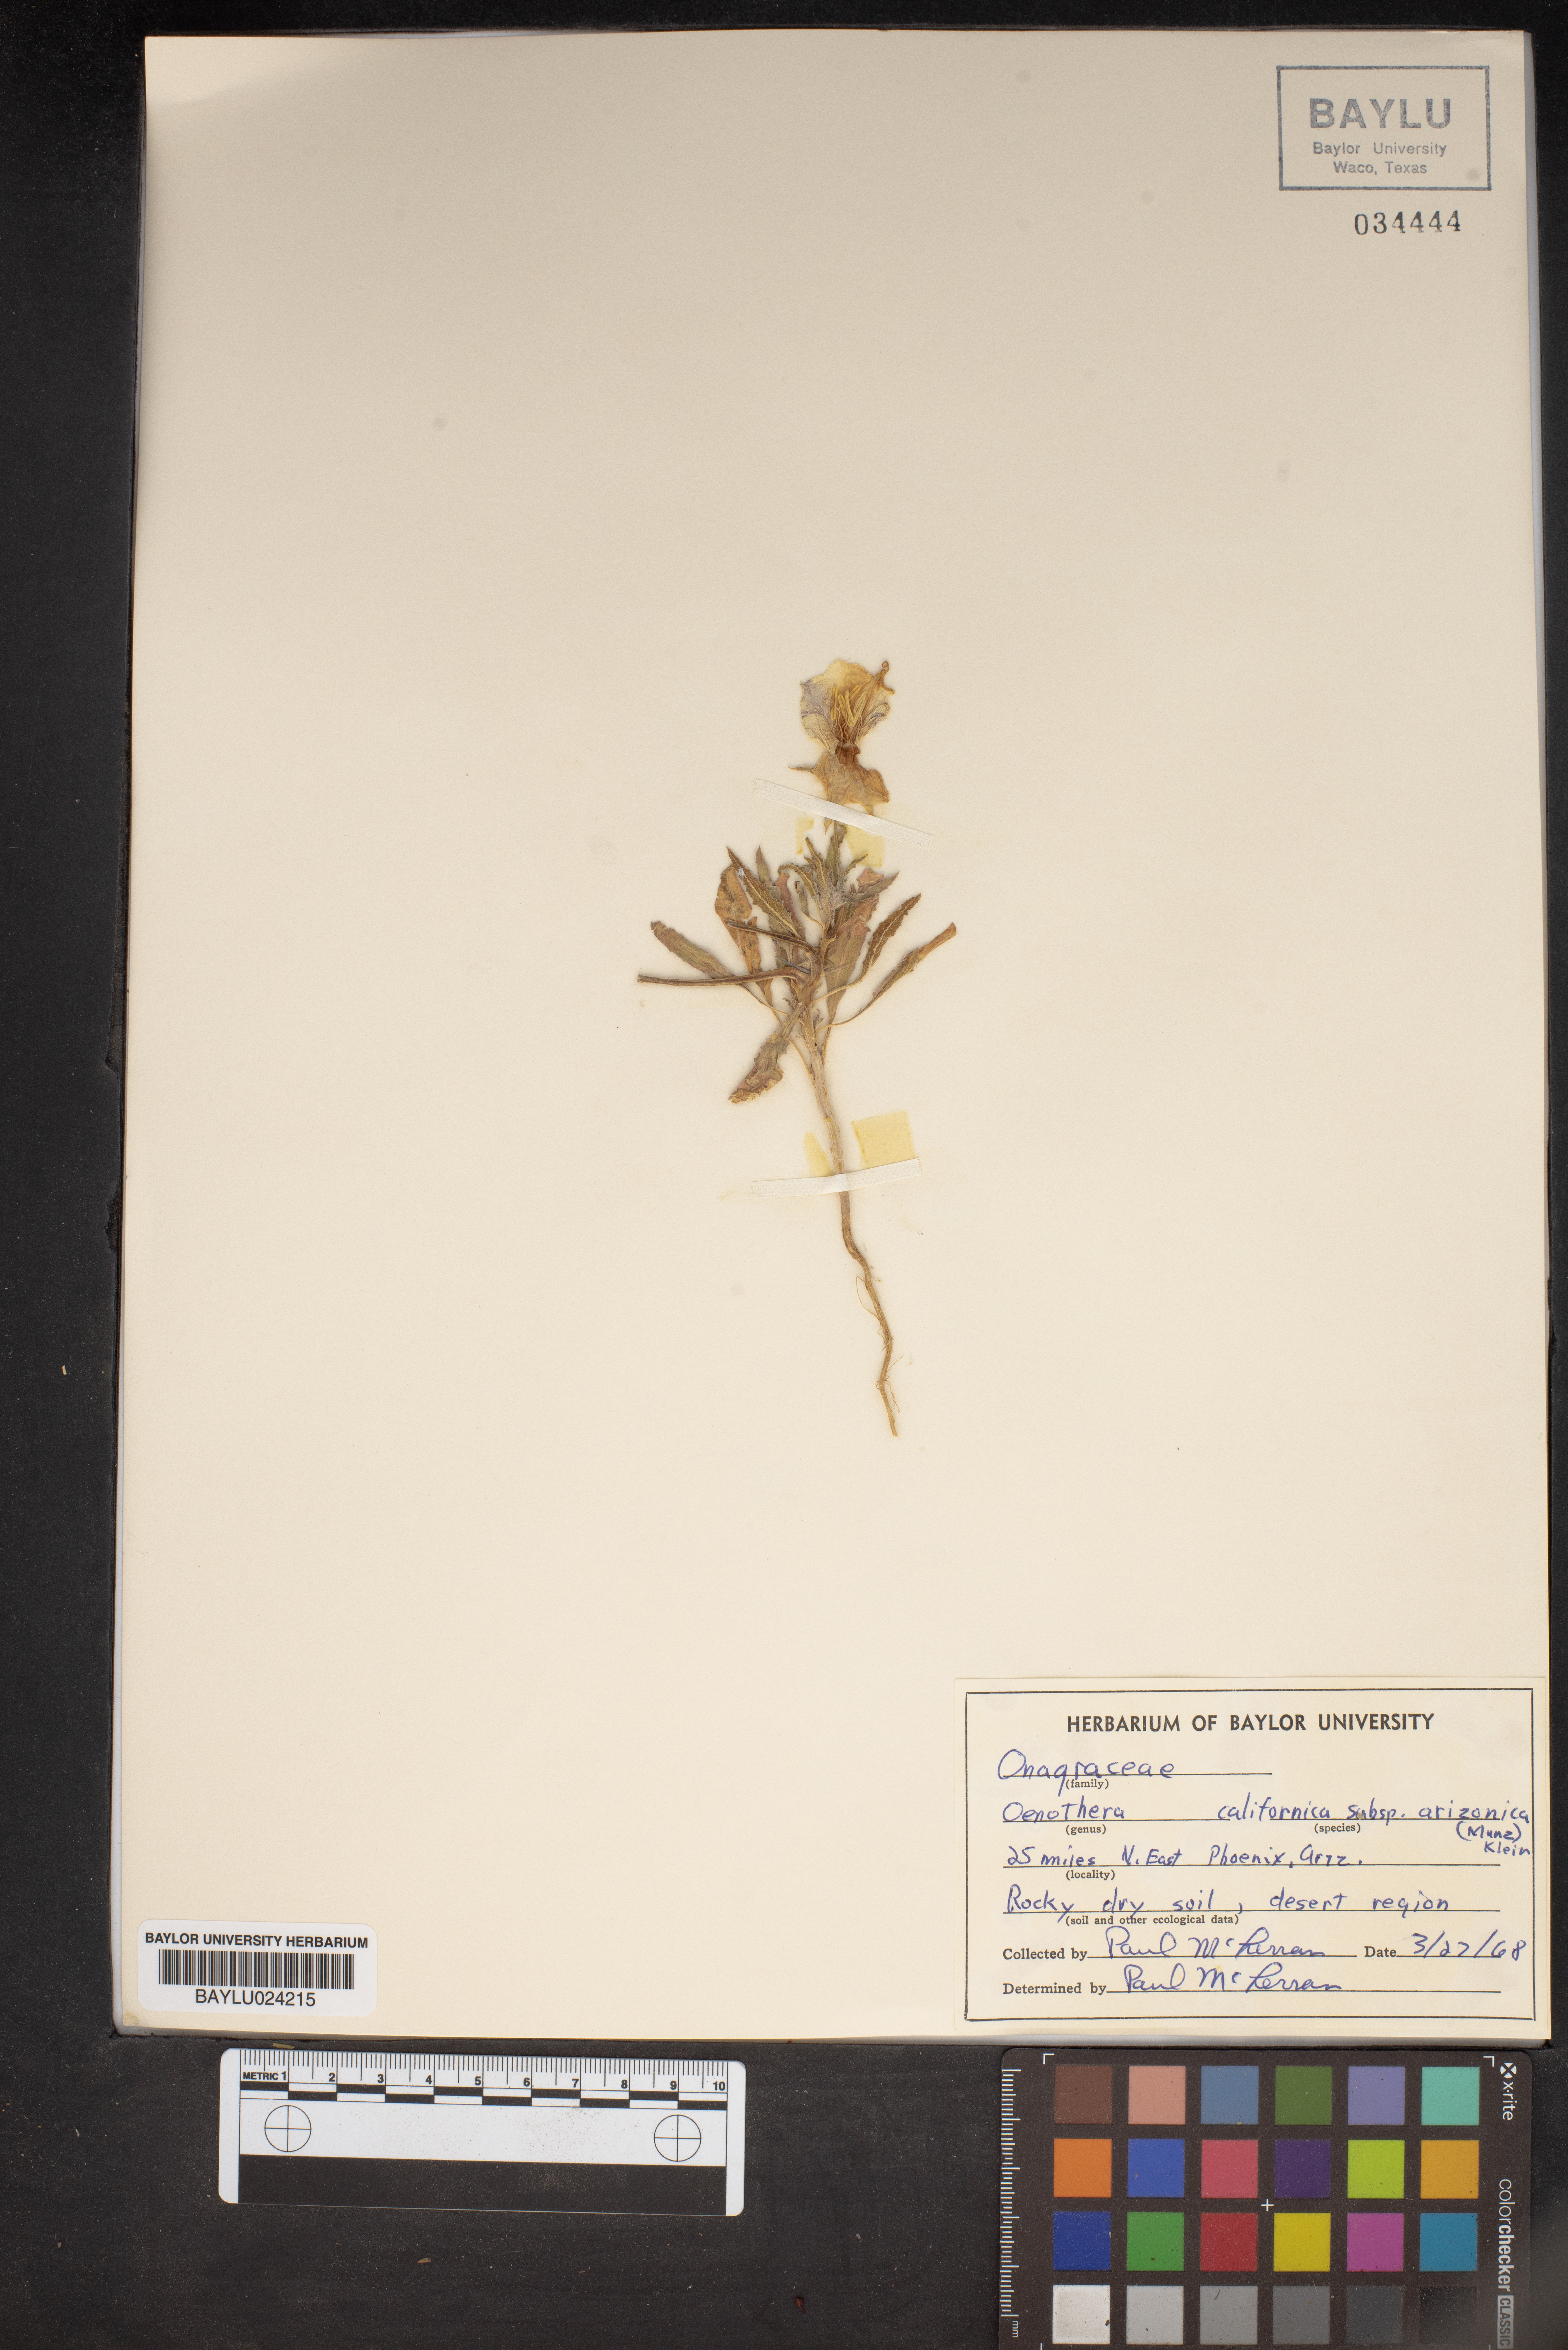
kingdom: Plantae
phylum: Tracheophyta
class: Magnoliopsida
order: Myrtales
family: Onagraceae
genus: Oenothera
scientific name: Oenothera arizonica
